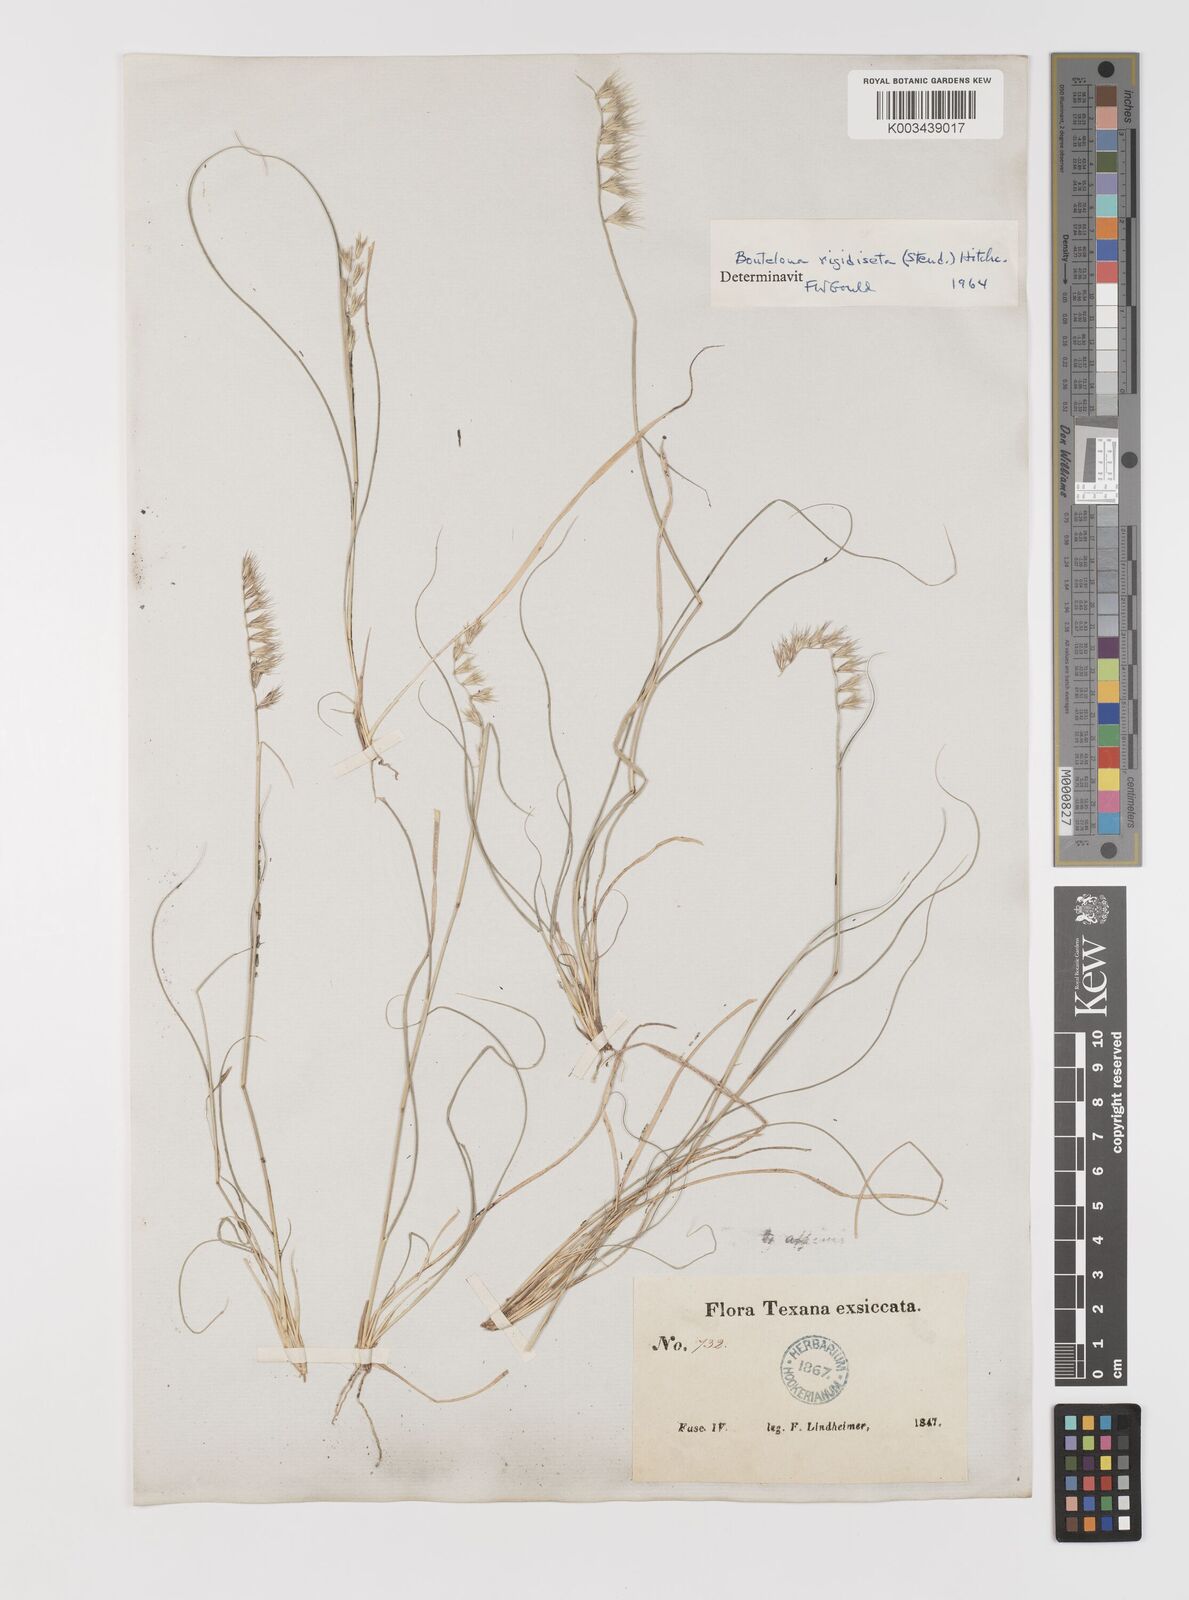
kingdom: Plantae
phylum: Tracheophyta
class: Liliopsida
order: Poales
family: Poaceae
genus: Bouteloua
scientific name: Bouteloua rigidiseta
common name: Texas grama
